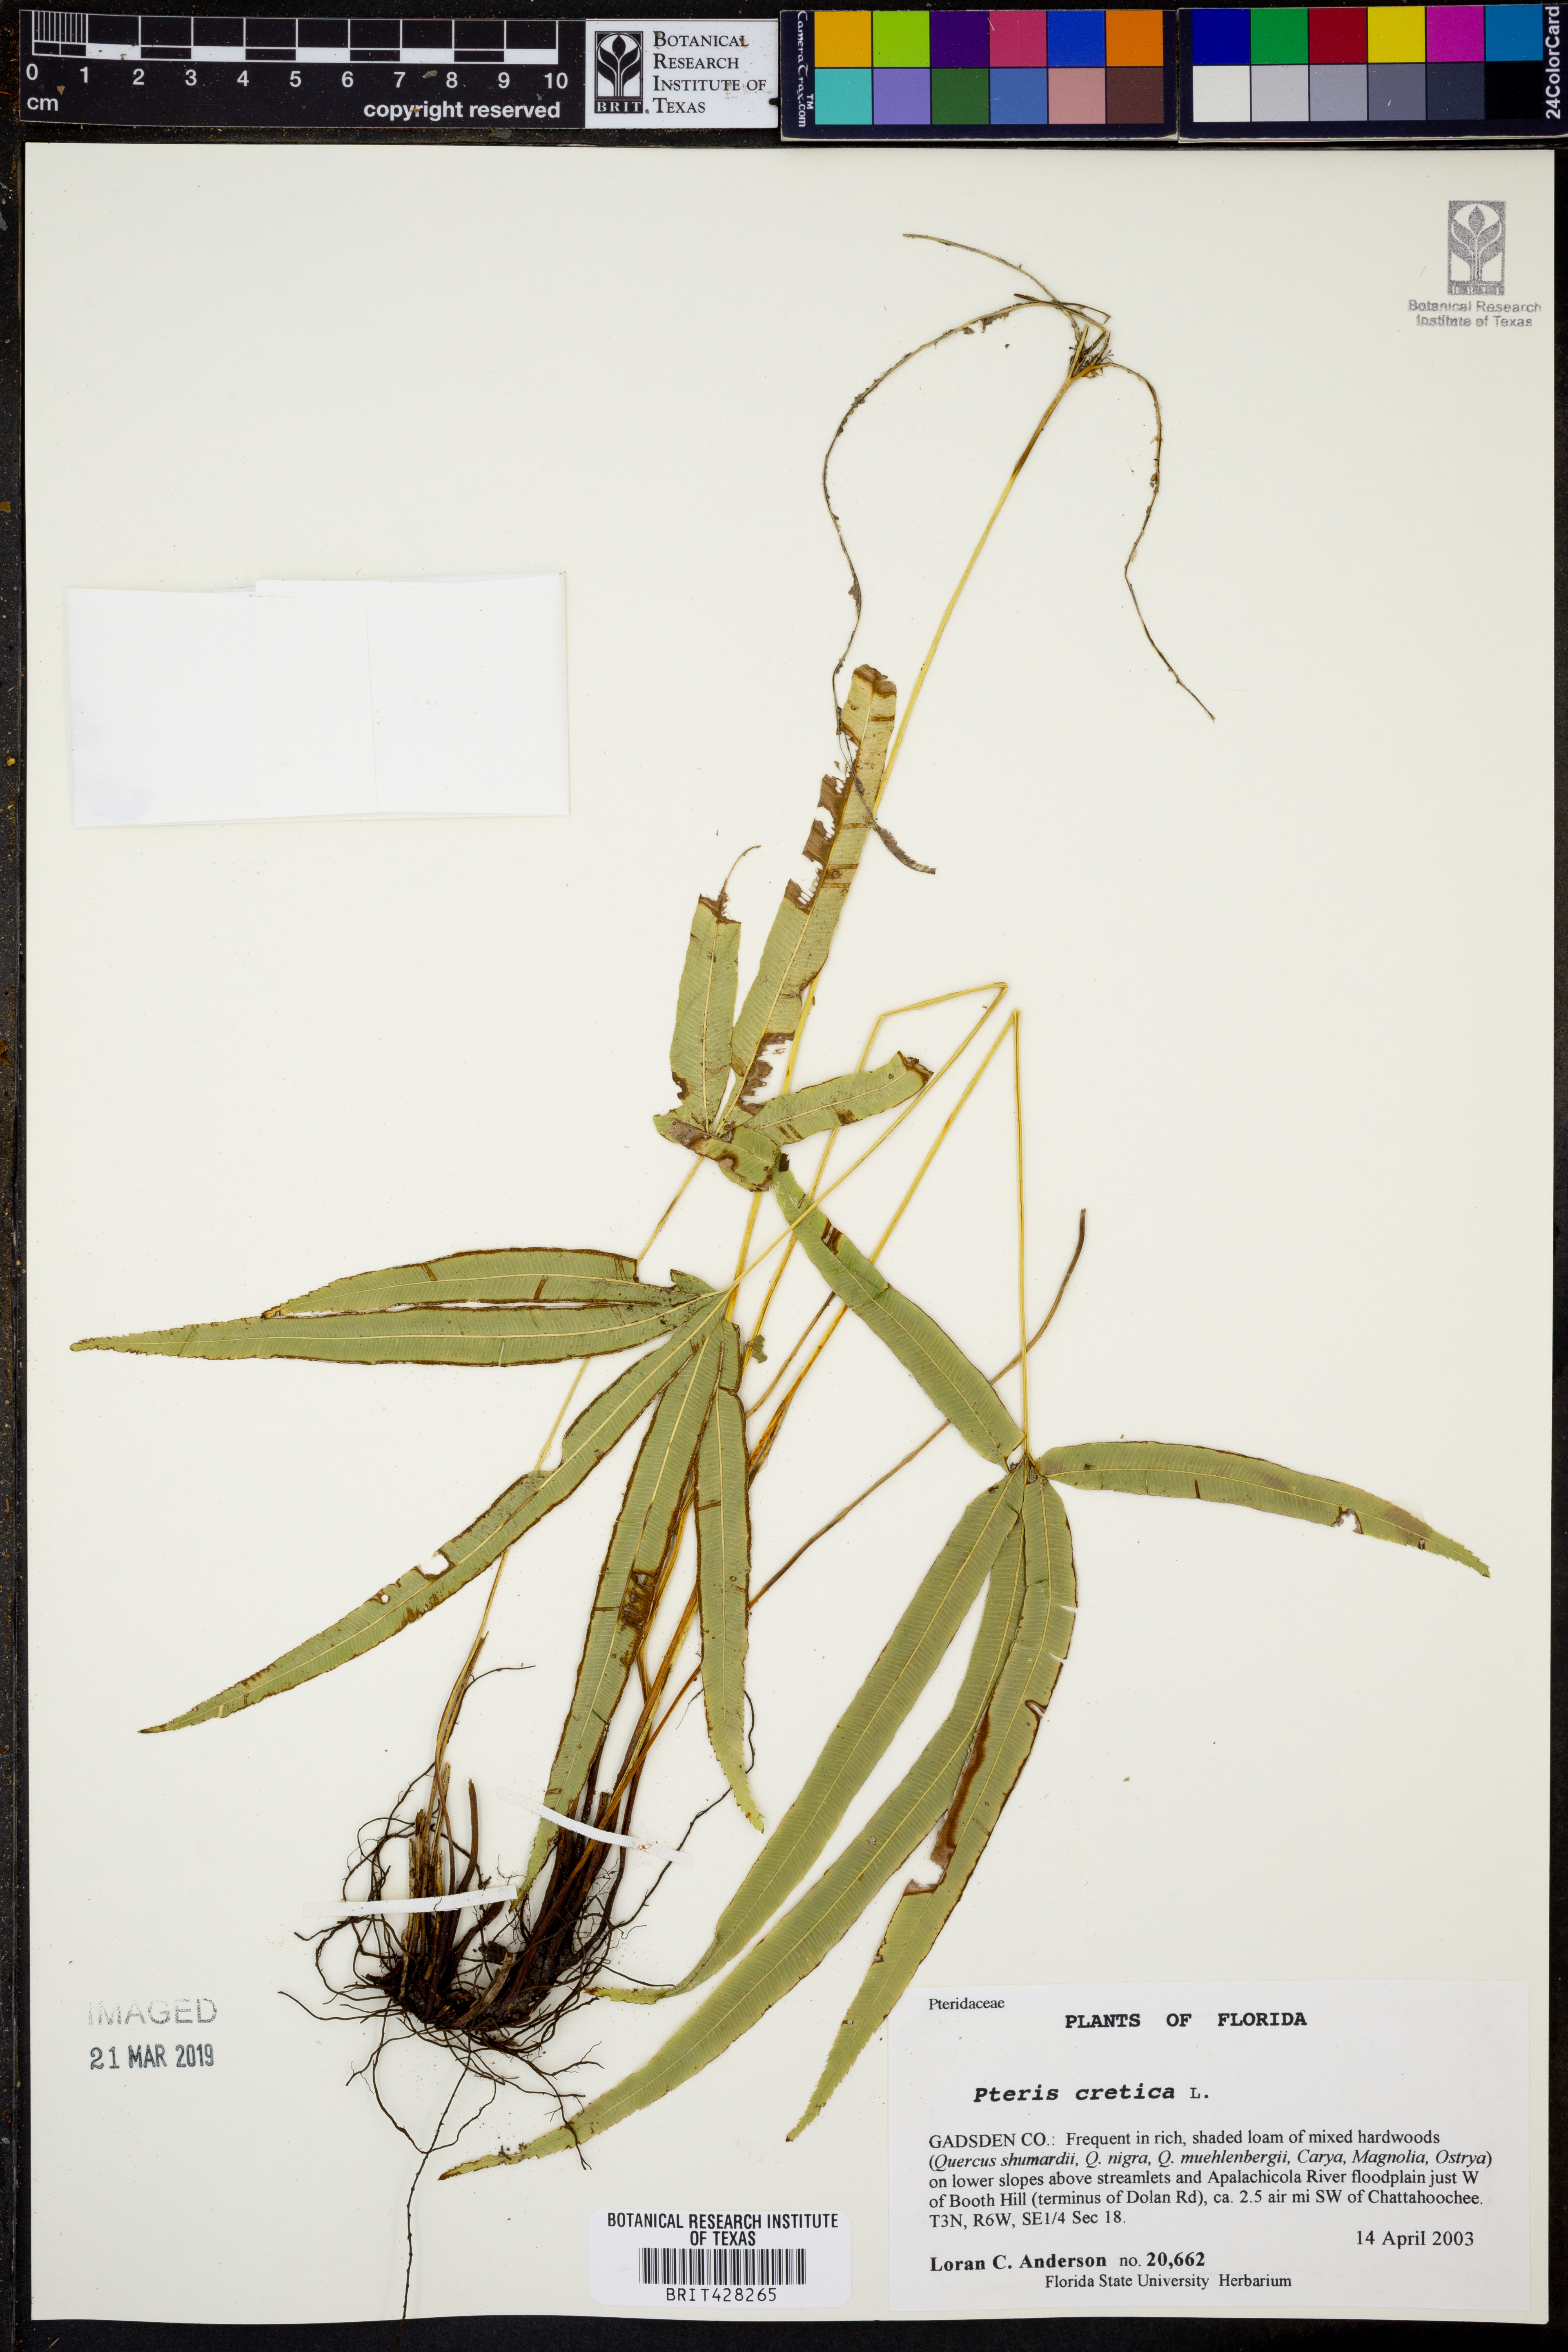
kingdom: Plantae
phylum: Tracheophyta
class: Polypodiopsida
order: Polypodiales
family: Pteridaceae
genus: Pteris
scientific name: Pteris cretica
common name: Ribbon fern
